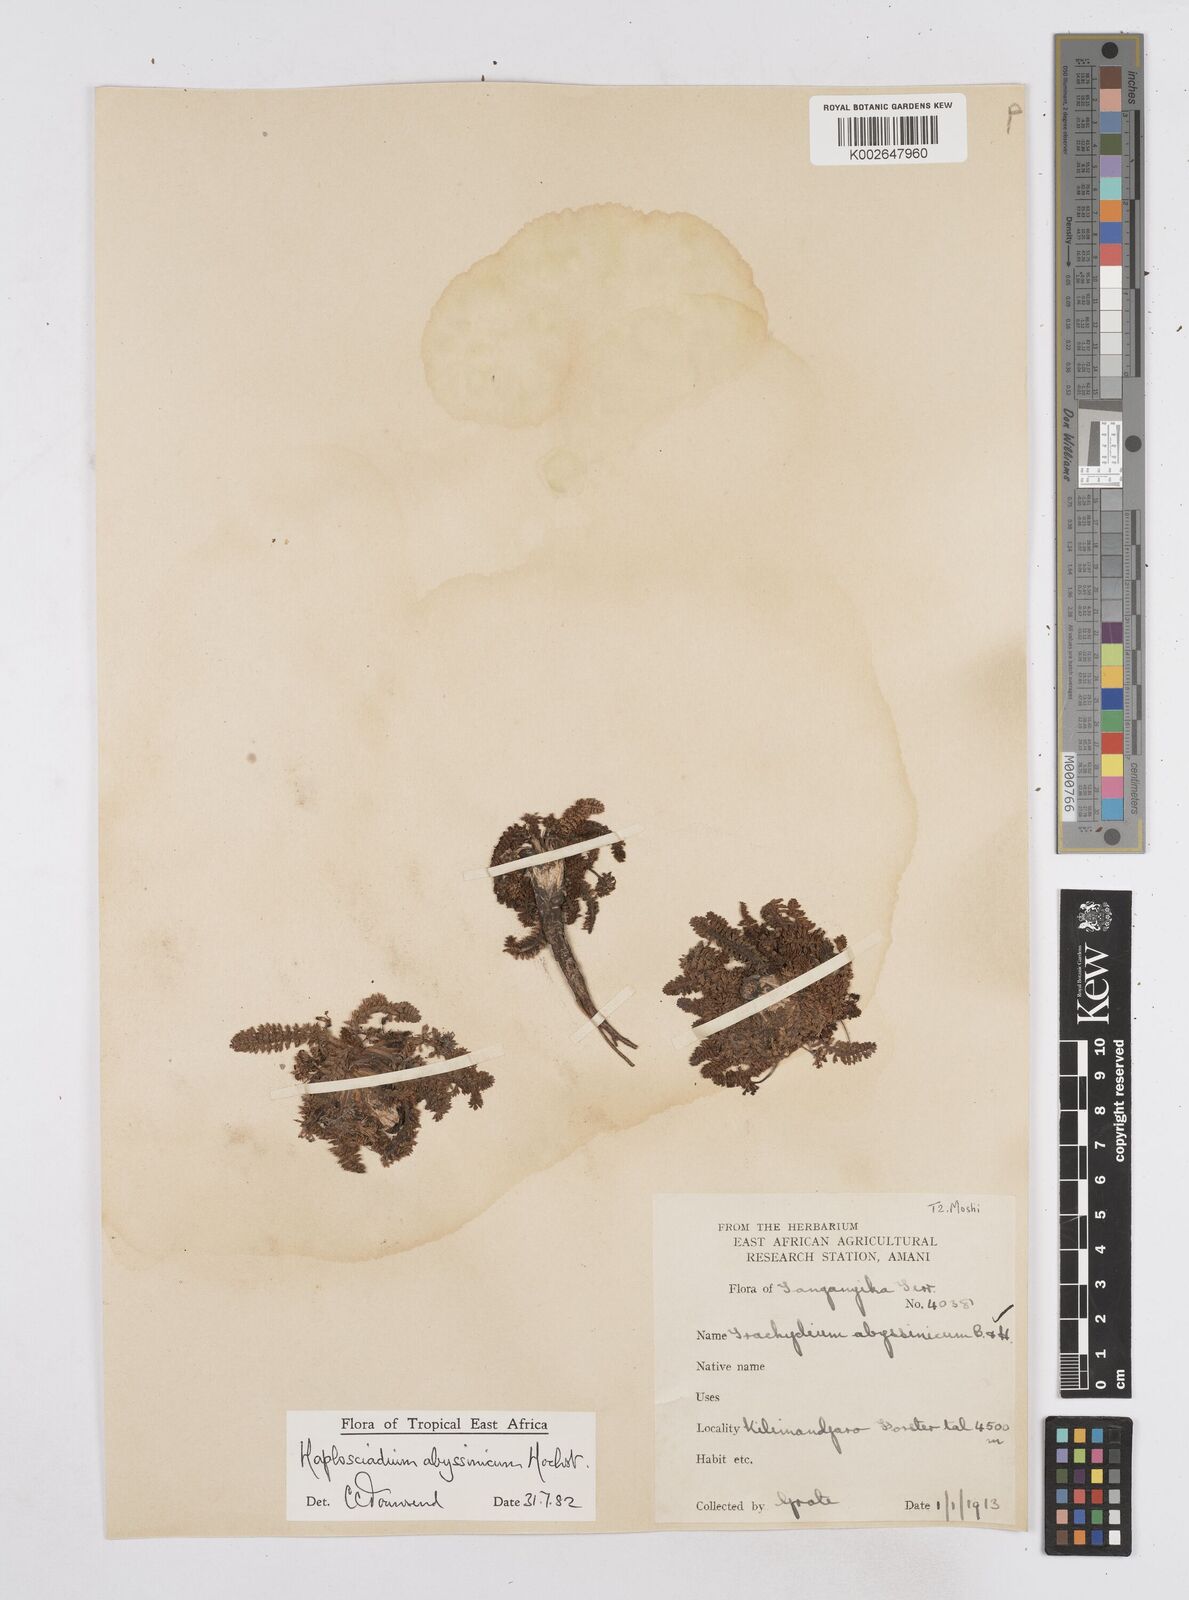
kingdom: Plantae
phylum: Tracheophyta
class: Magnoliopsida
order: Apiales
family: Apiaceae
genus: Haplosciadium
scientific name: Haplosciadium abyssinicum
